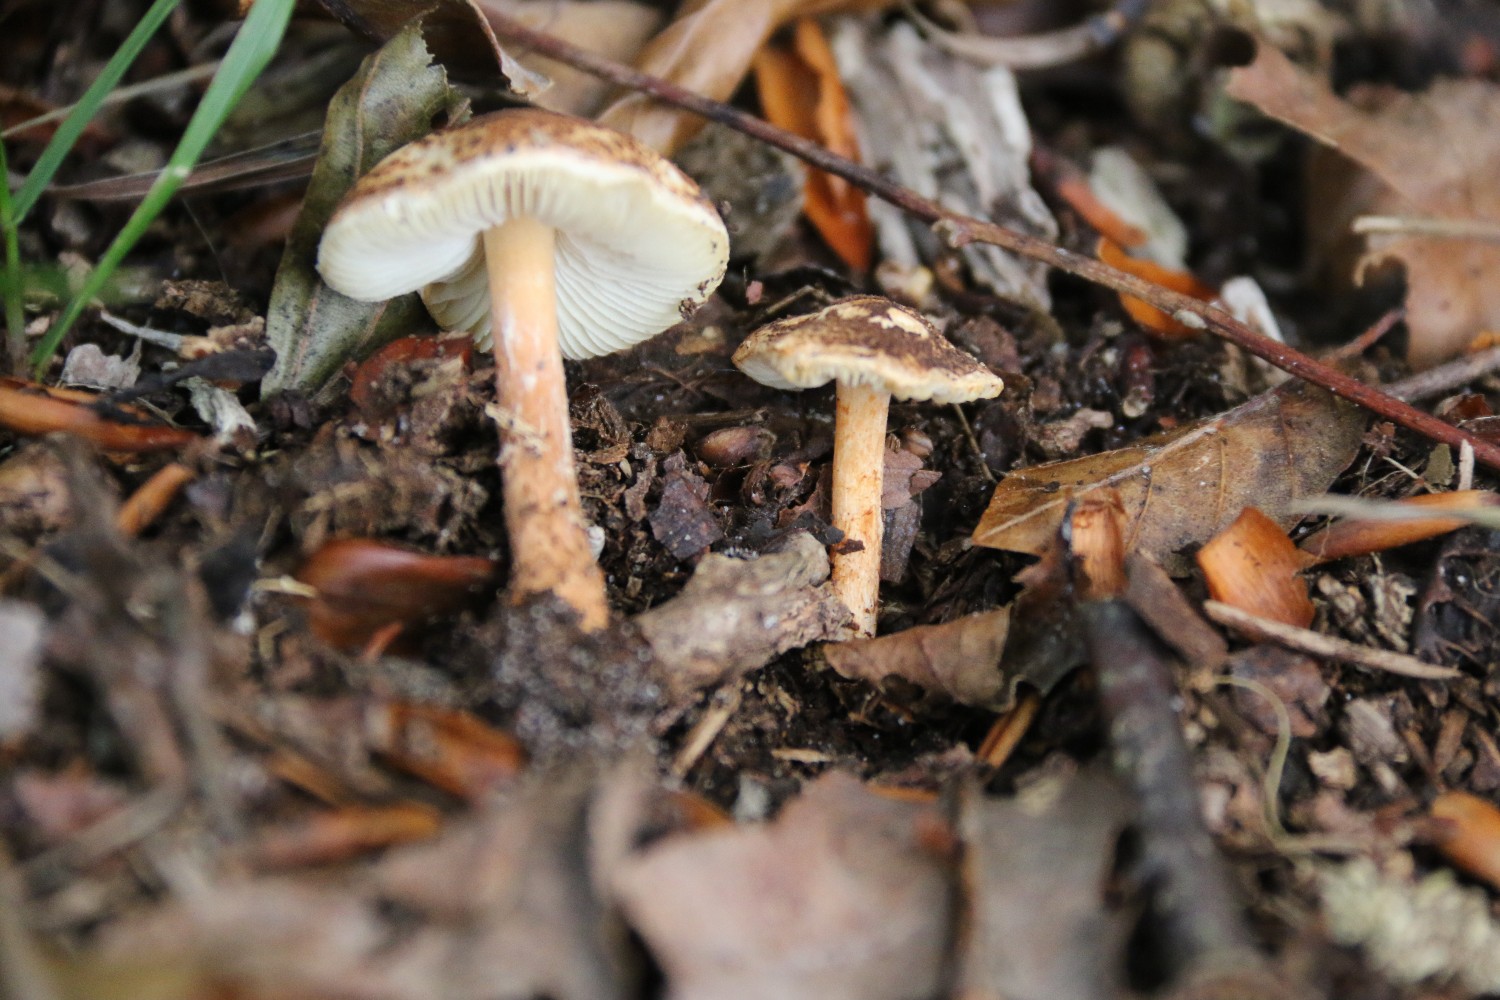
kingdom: Fungi
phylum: Basidiomycota
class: Agaricomycetes
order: Agaricales
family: Agaricaceae
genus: Lepiota
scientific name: Lepiota castanea
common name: kastaniebrun parasolhat
